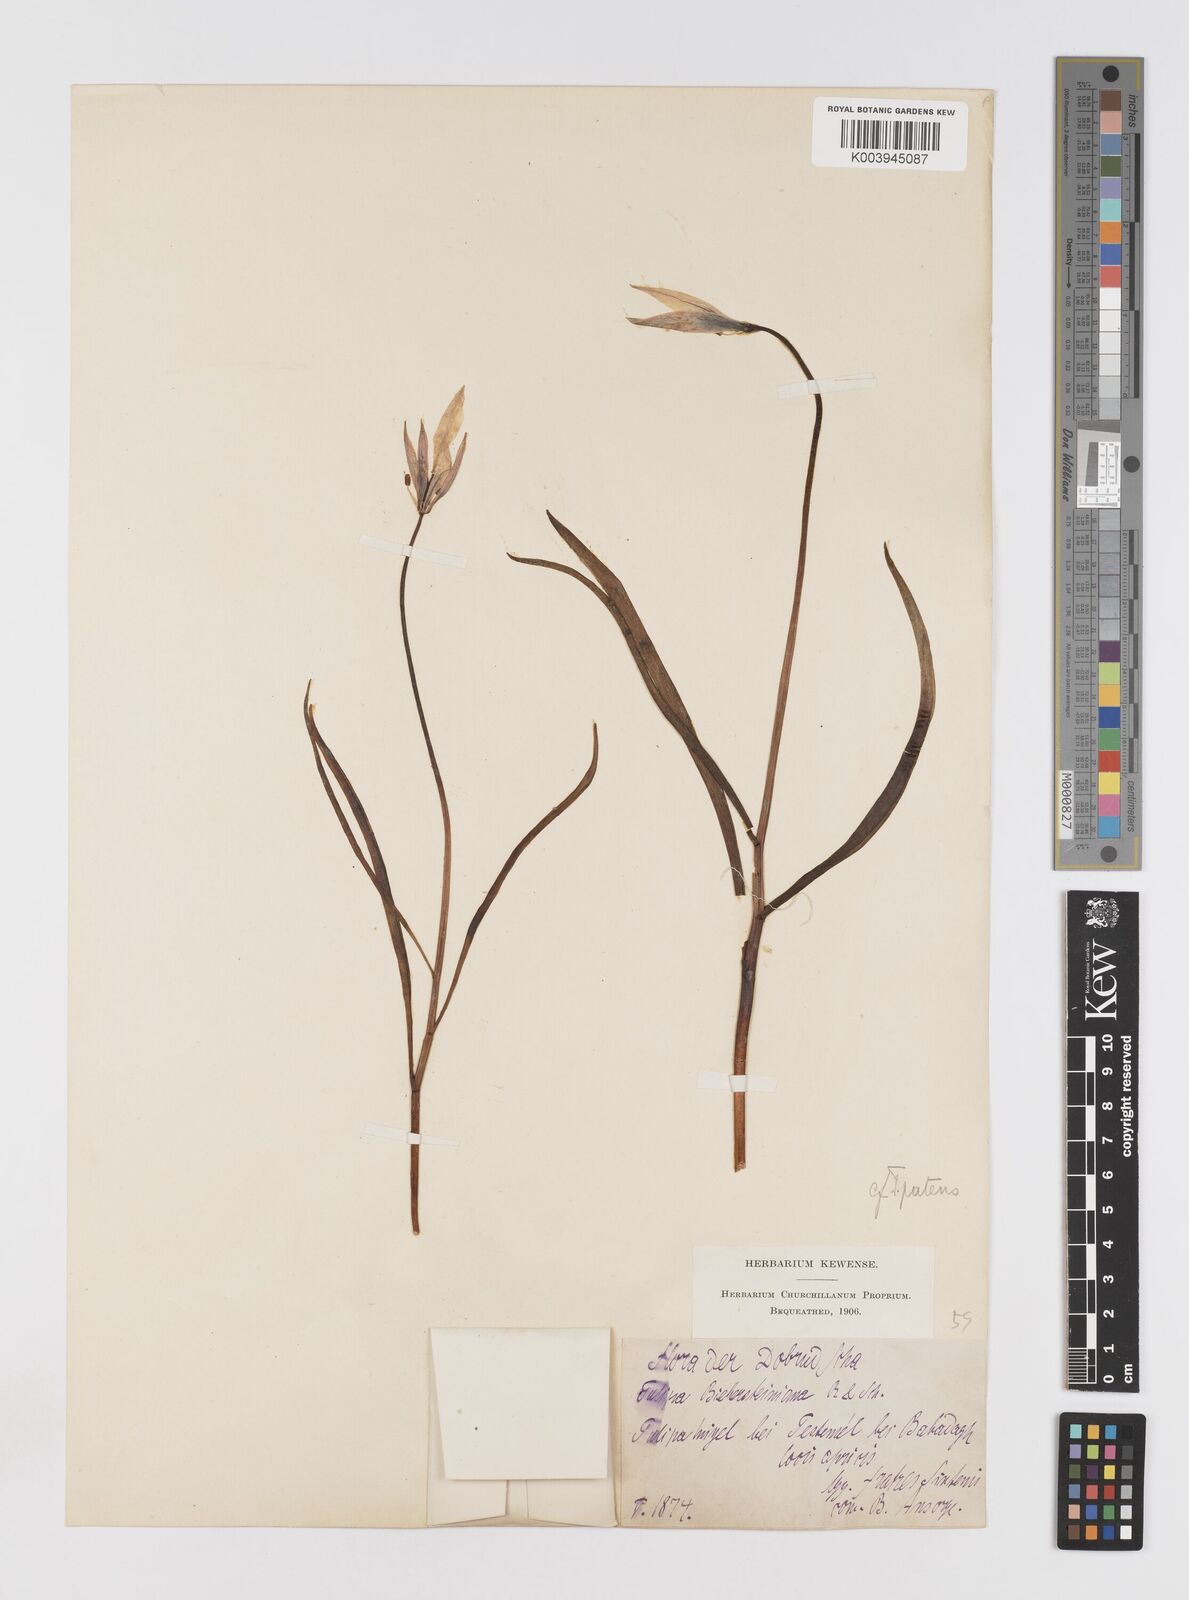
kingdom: Plantae
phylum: Tracheophyta
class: Liliopsida
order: Liliales
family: Liliaceae
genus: Tulipa
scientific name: Tulipa sylvestris
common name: Wild tulip
